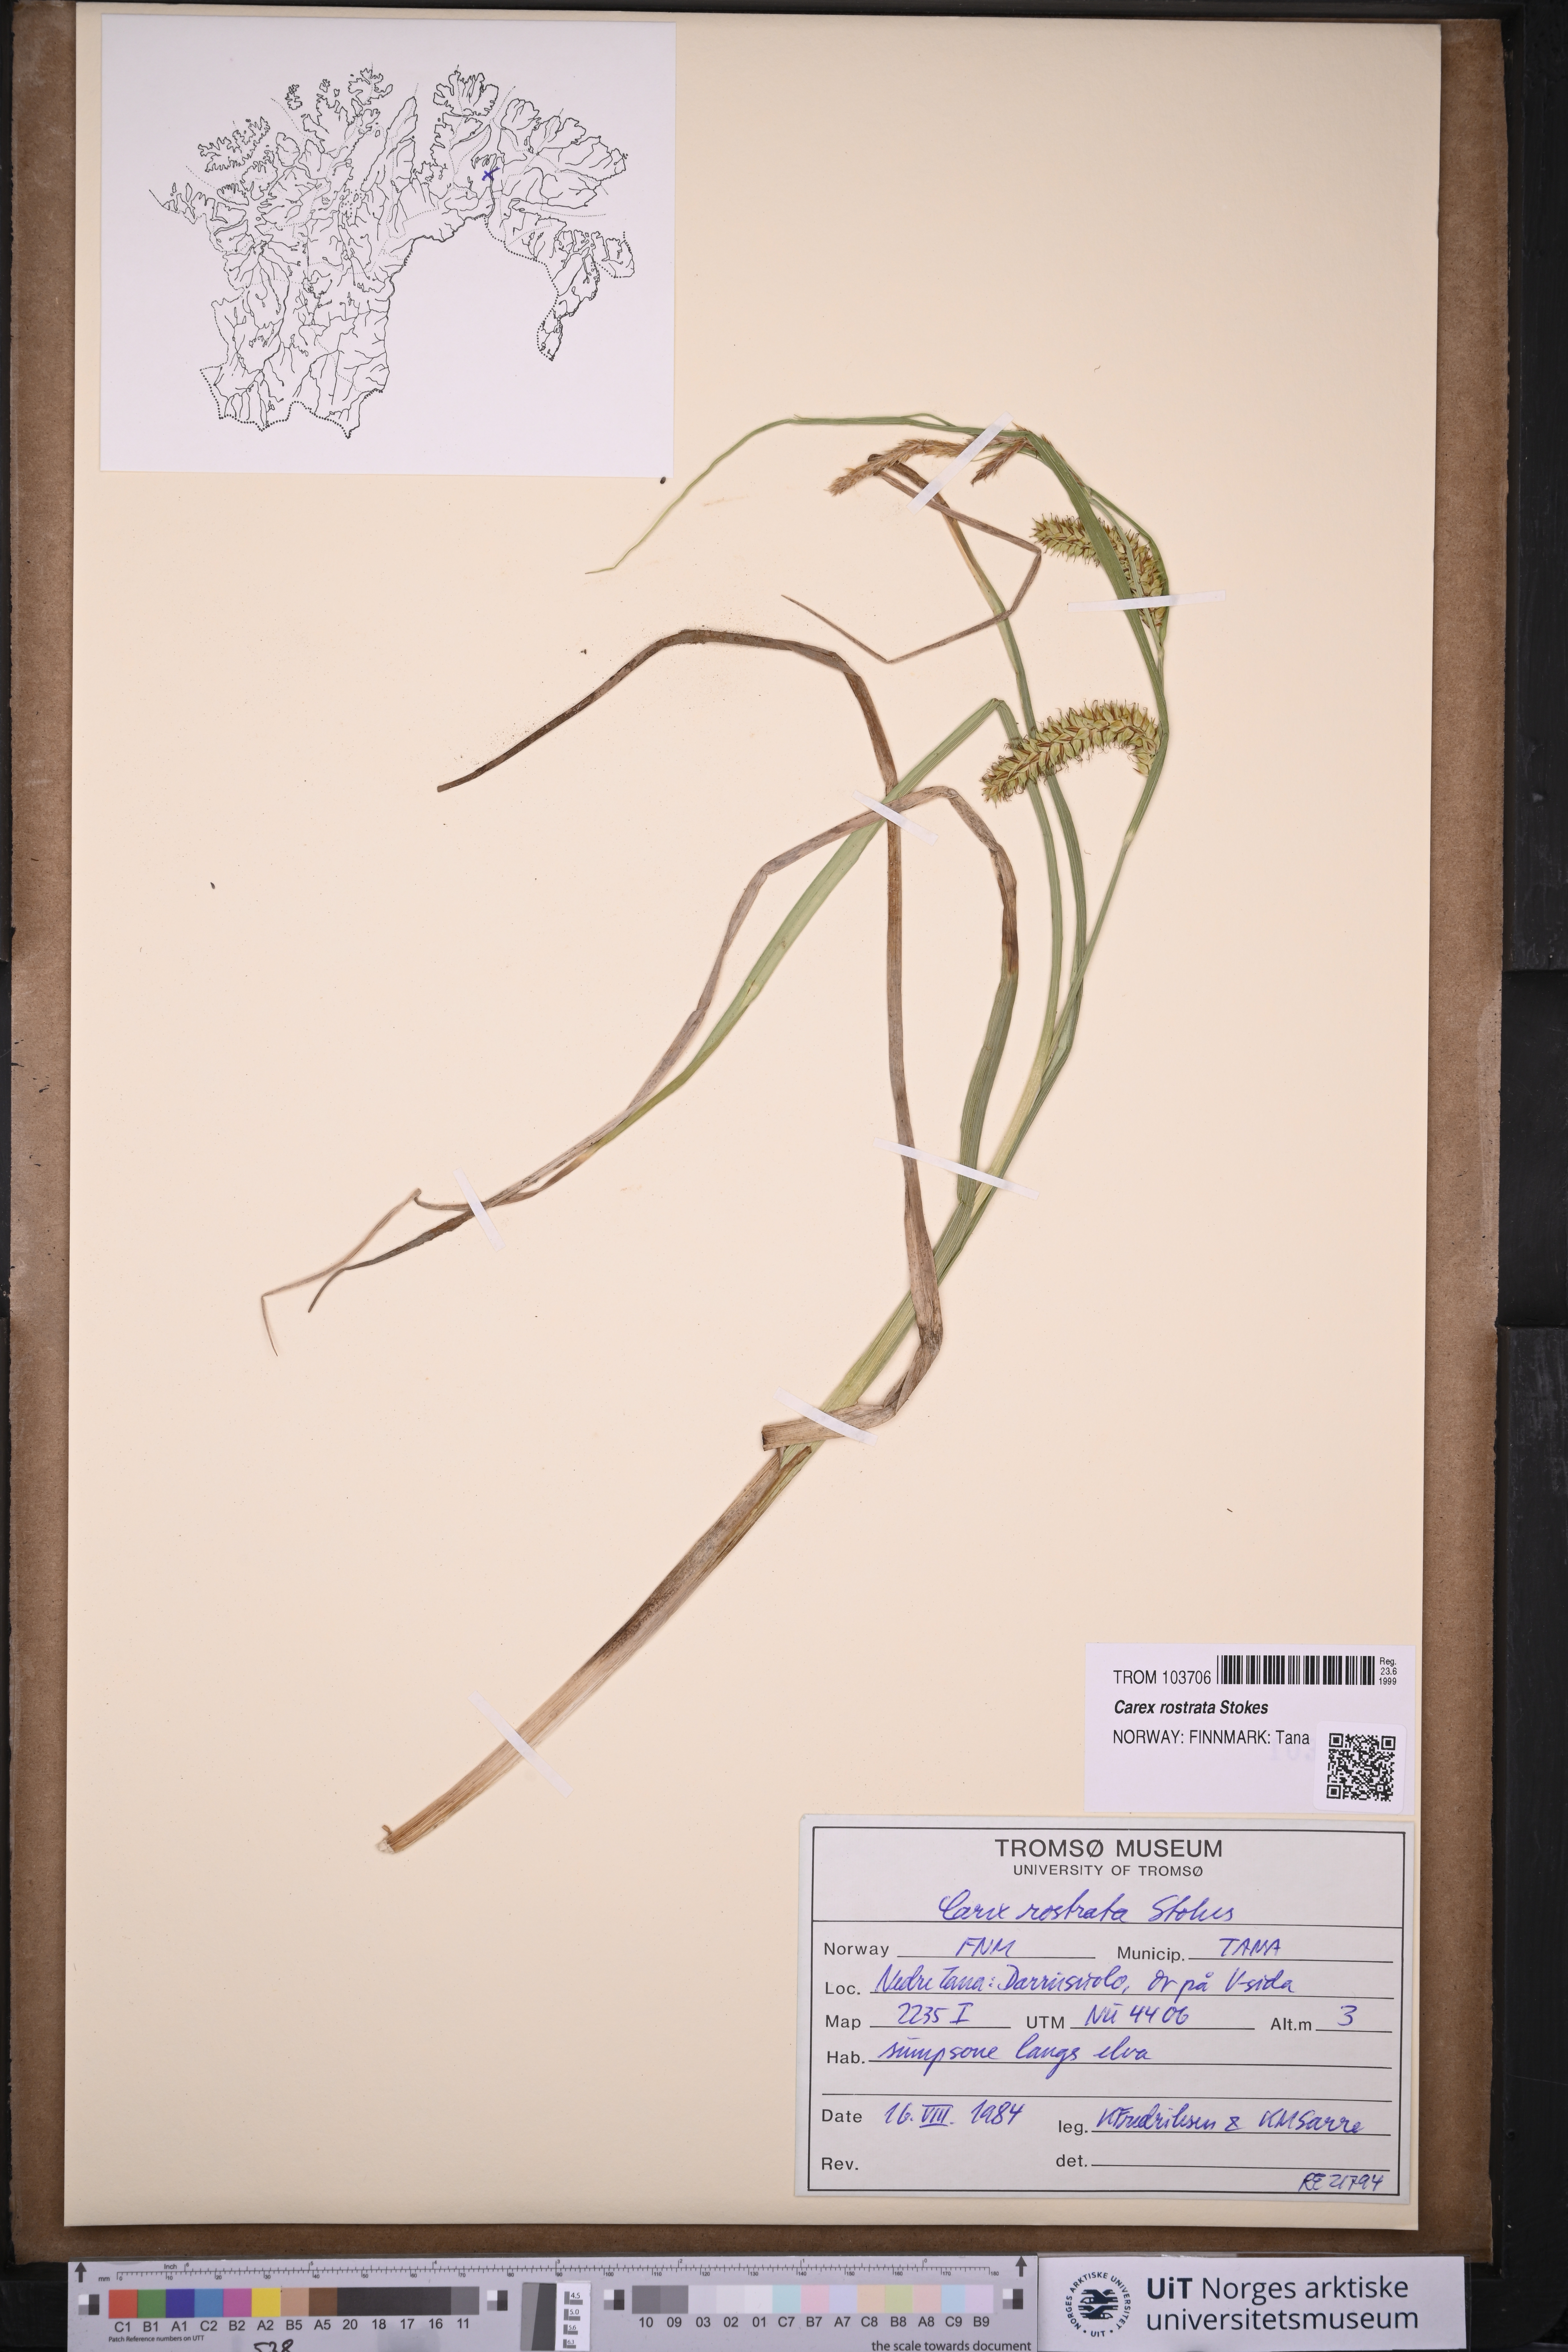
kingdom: Plantae
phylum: Tracheophyta
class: Liliopsida
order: Poales
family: Cyperaceae
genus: Carex
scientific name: Carex rostrata
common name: Bottle sedge
